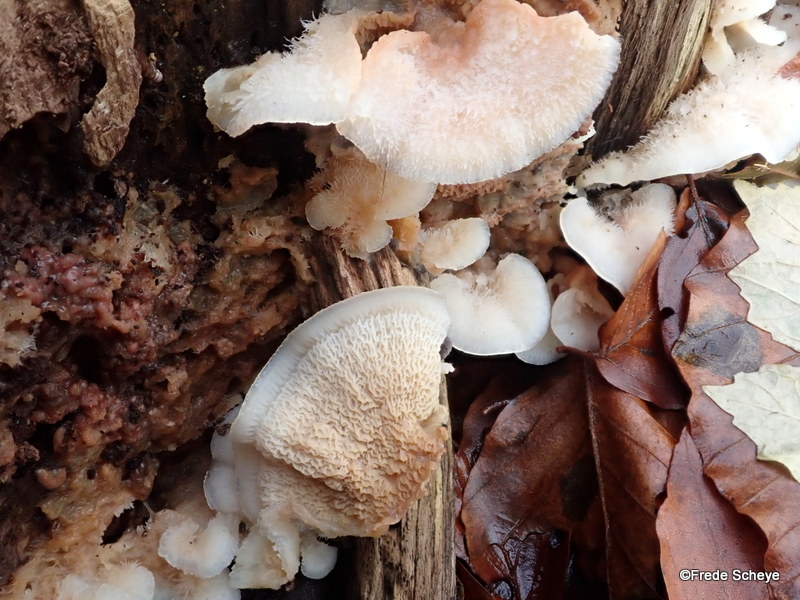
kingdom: Fungi
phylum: Basidiomycota
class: Agaricomycetes
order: Polyporales
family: Meruliaceae
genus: Phlebia
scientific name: Phlebia tremellosa
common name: bævrende åresvamp
